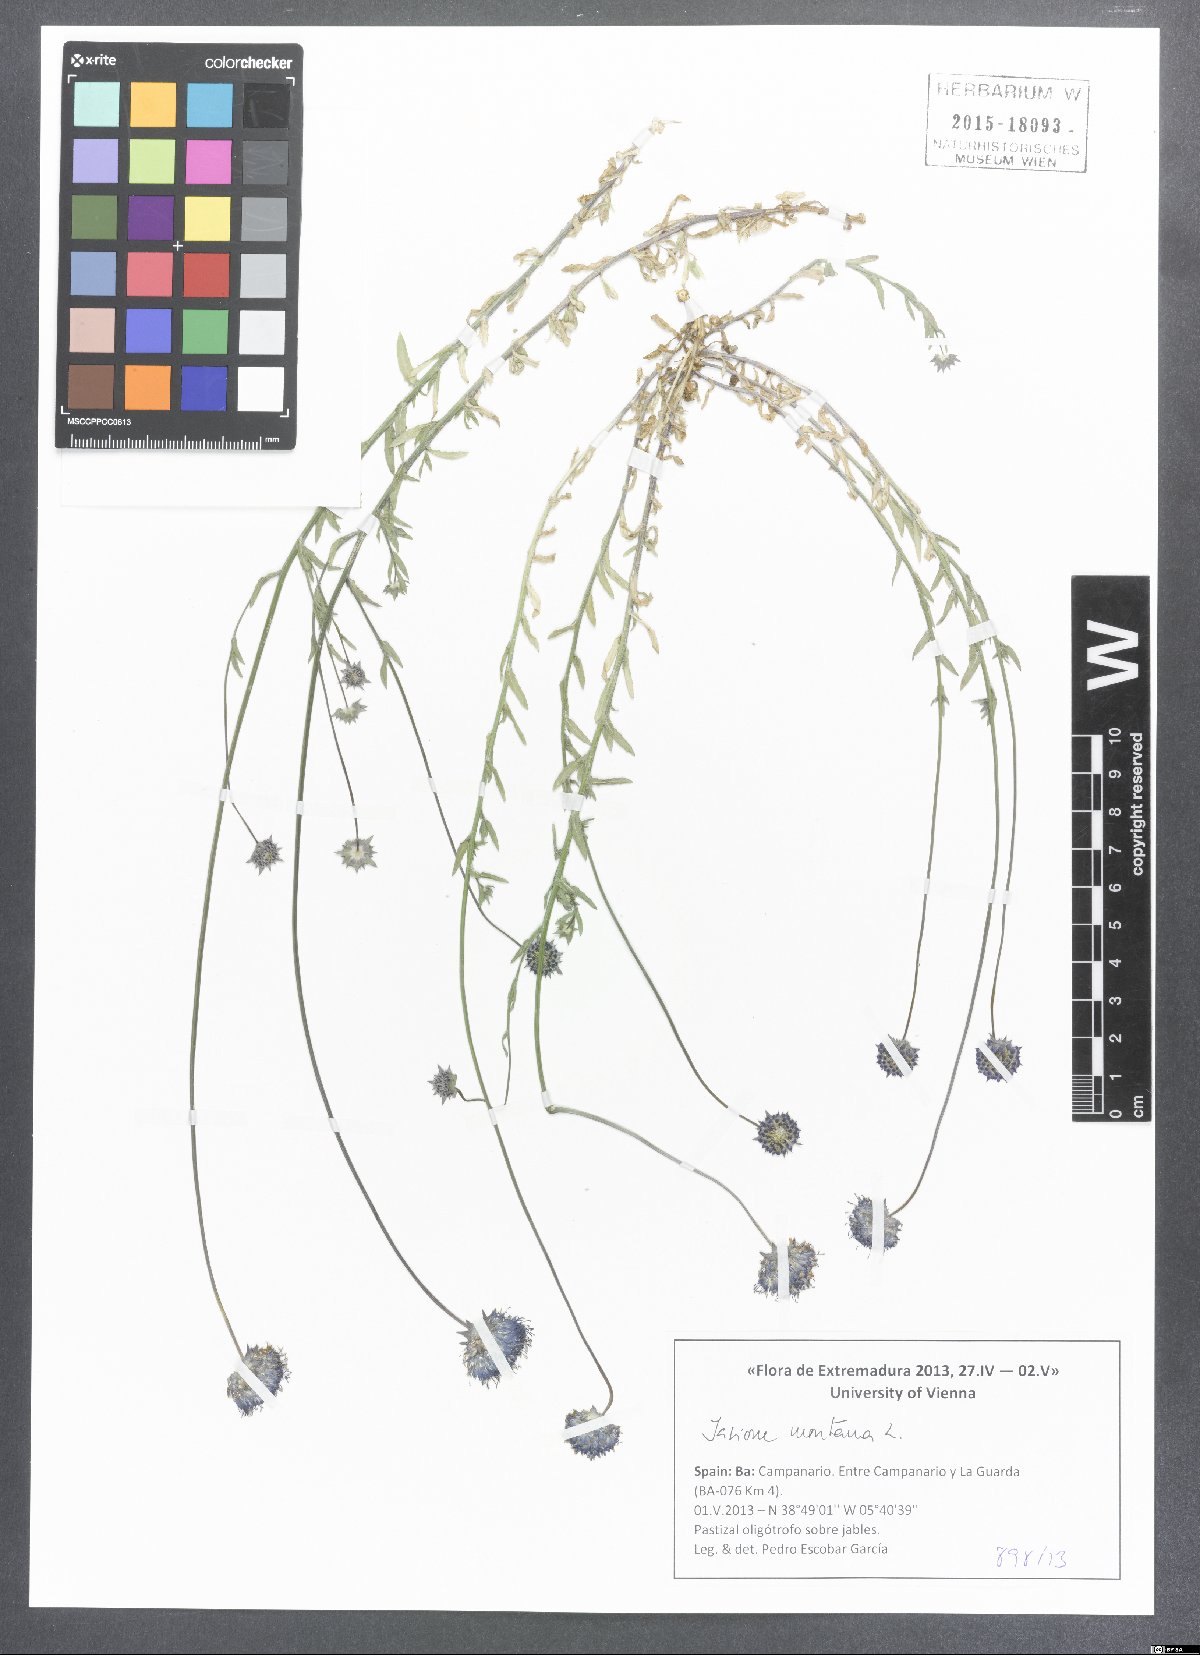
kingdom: Plantae
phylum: Tracheophyta
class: Magnoliopsida
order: Asterales
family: Campanulaceae
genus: Jasione
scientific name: Jasione montana
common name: Sheep's-bit
